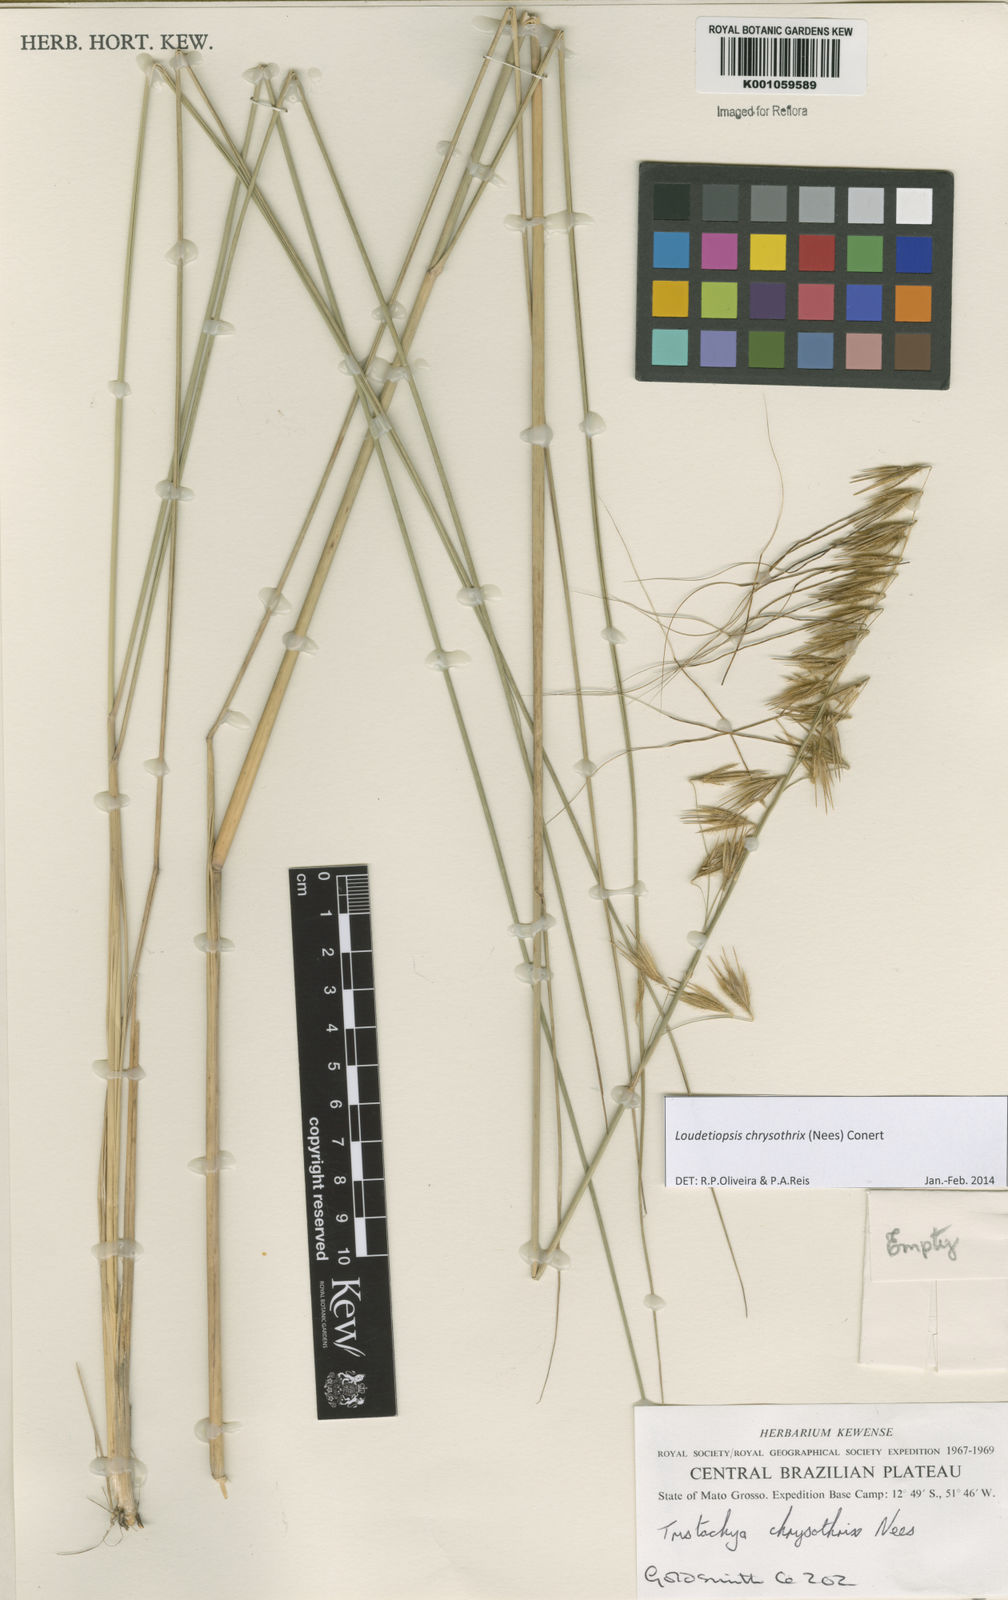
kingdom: Plantae
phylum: Tracheophyta
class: Liliopsida
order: Poales
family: Poaceae
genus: Loudetiopsis
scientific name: Loudetiopsis chrysothrix
